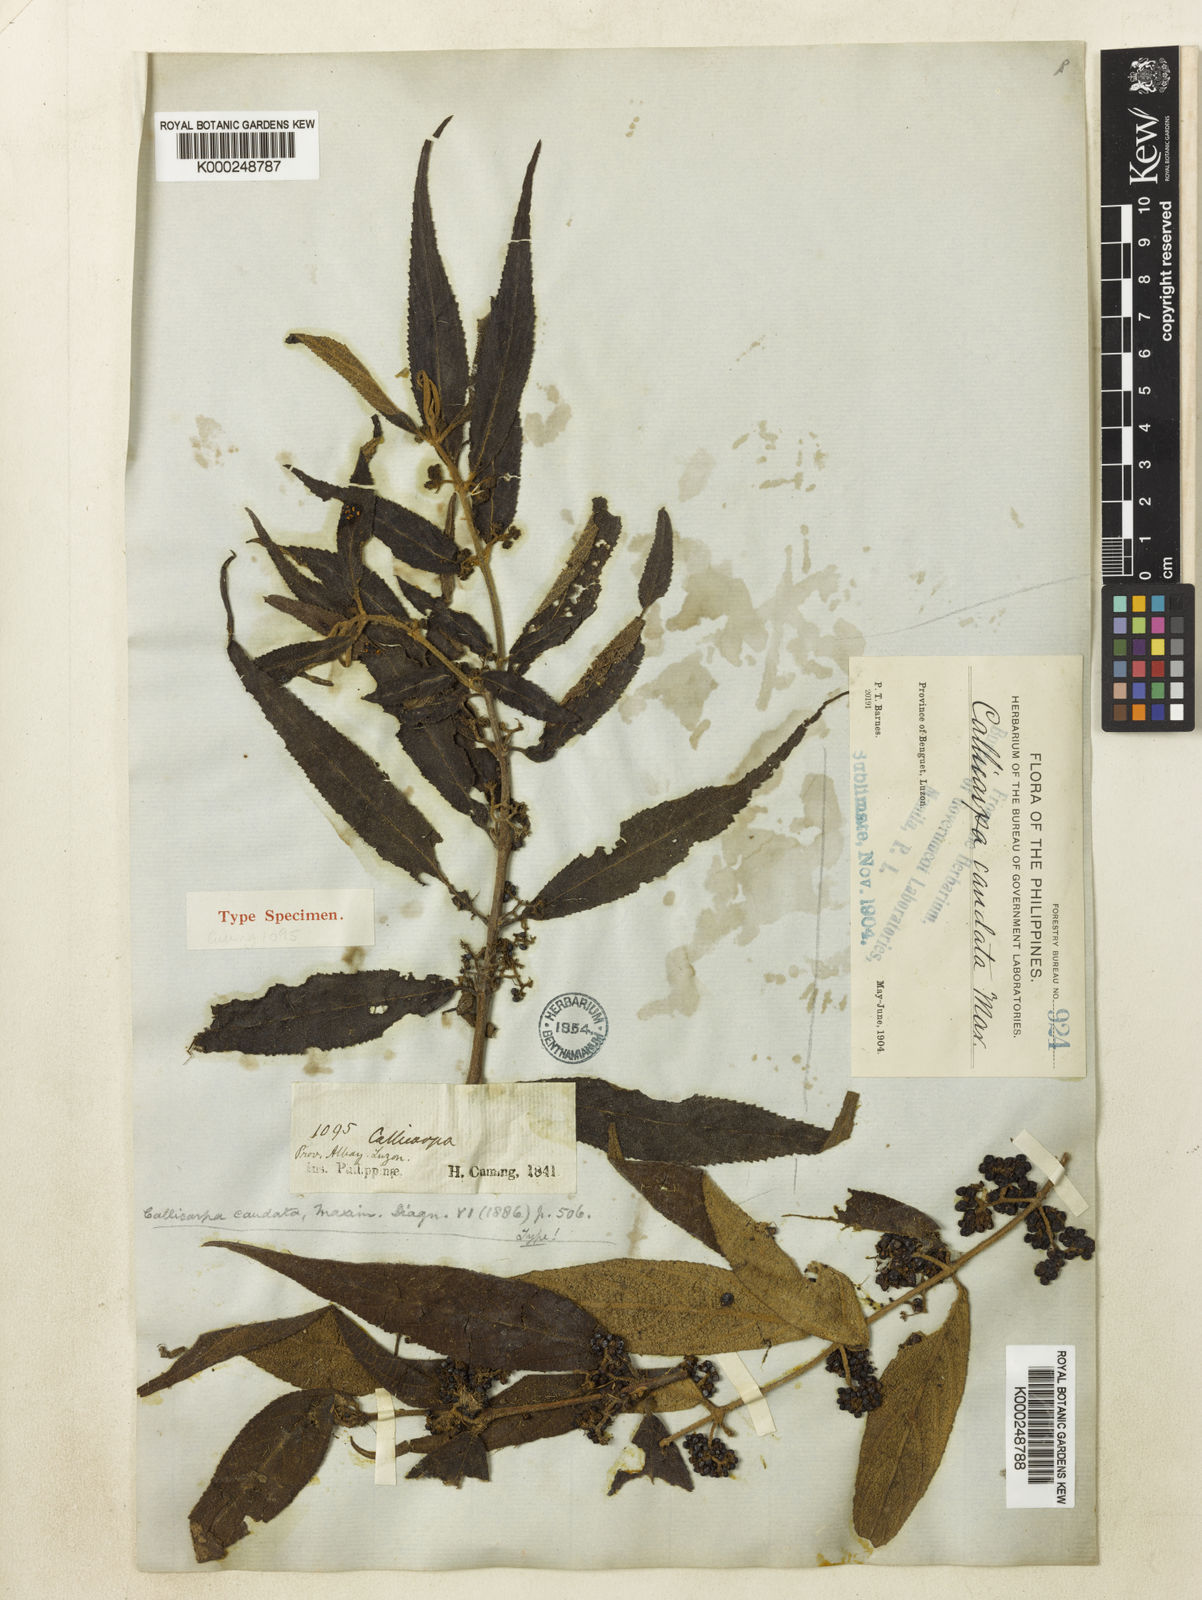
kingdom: Plantae
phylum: Tracheophyta
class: Magnoliopsida
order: Lamiales
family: Lamiaceae
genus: Callicarpa
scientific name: Callicarpa caudata
